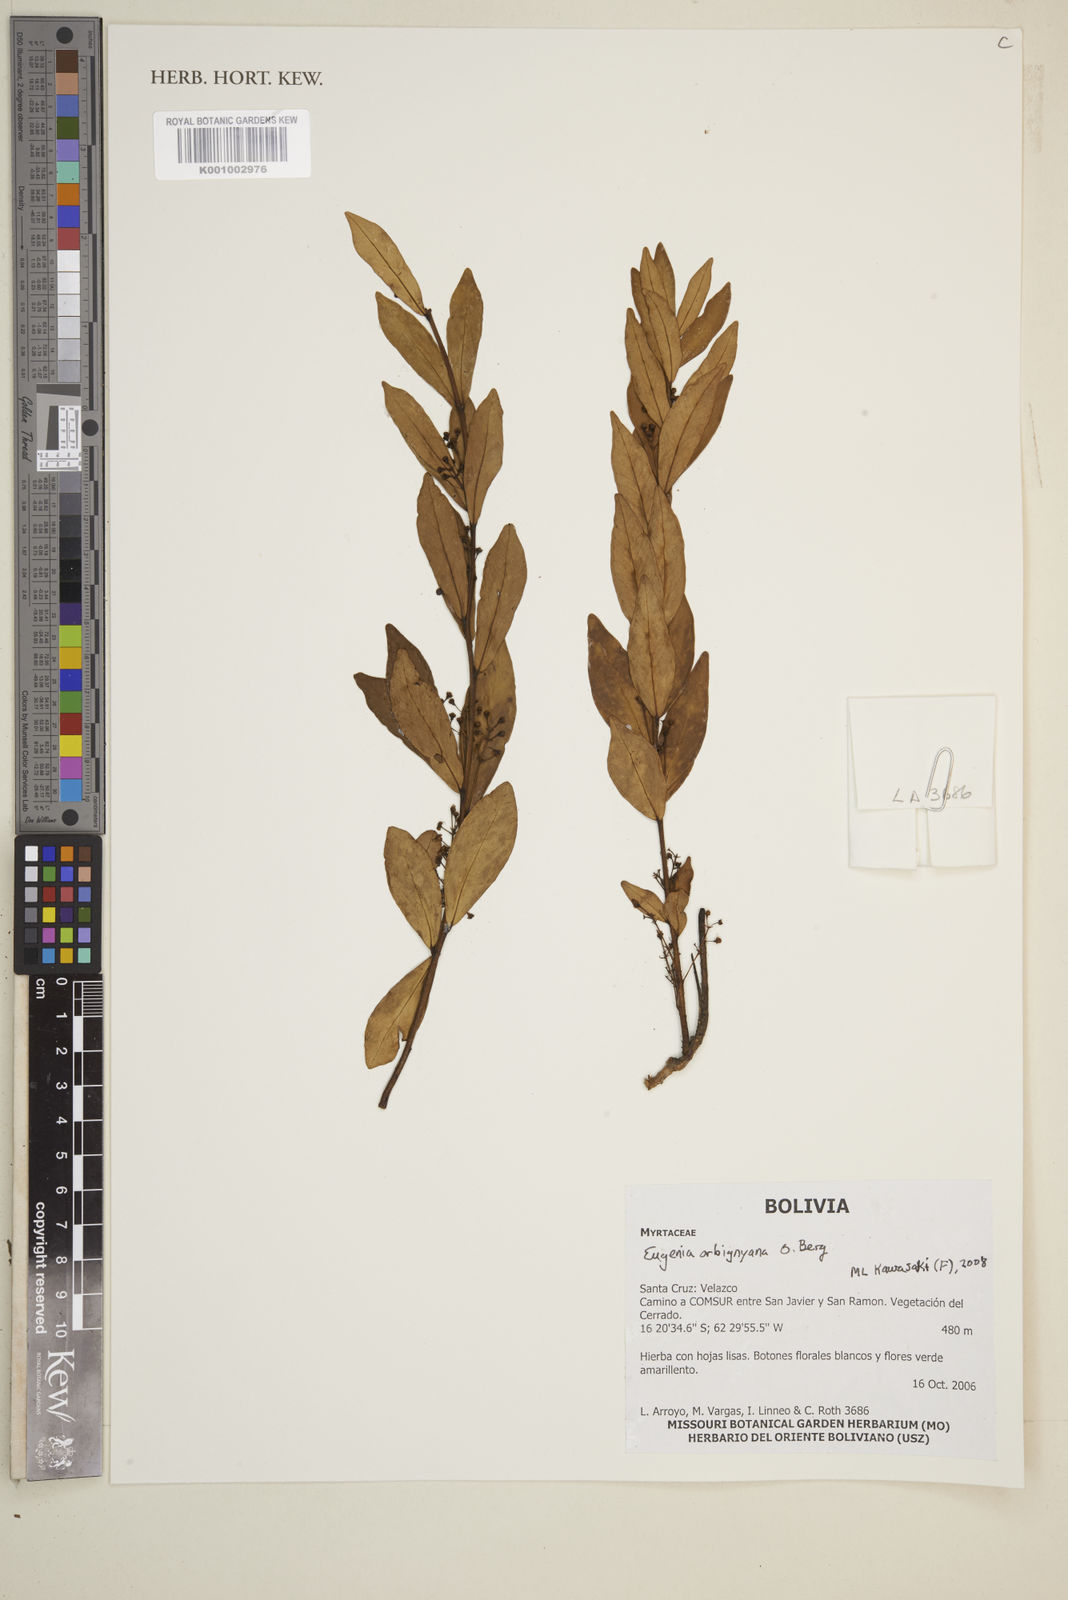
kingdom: Plantae
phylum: Tracheophyta
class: Magnoliopsida
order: Myrtales
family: Myrtaceae
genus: Eugenia
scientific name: Eugenia orbignyana
